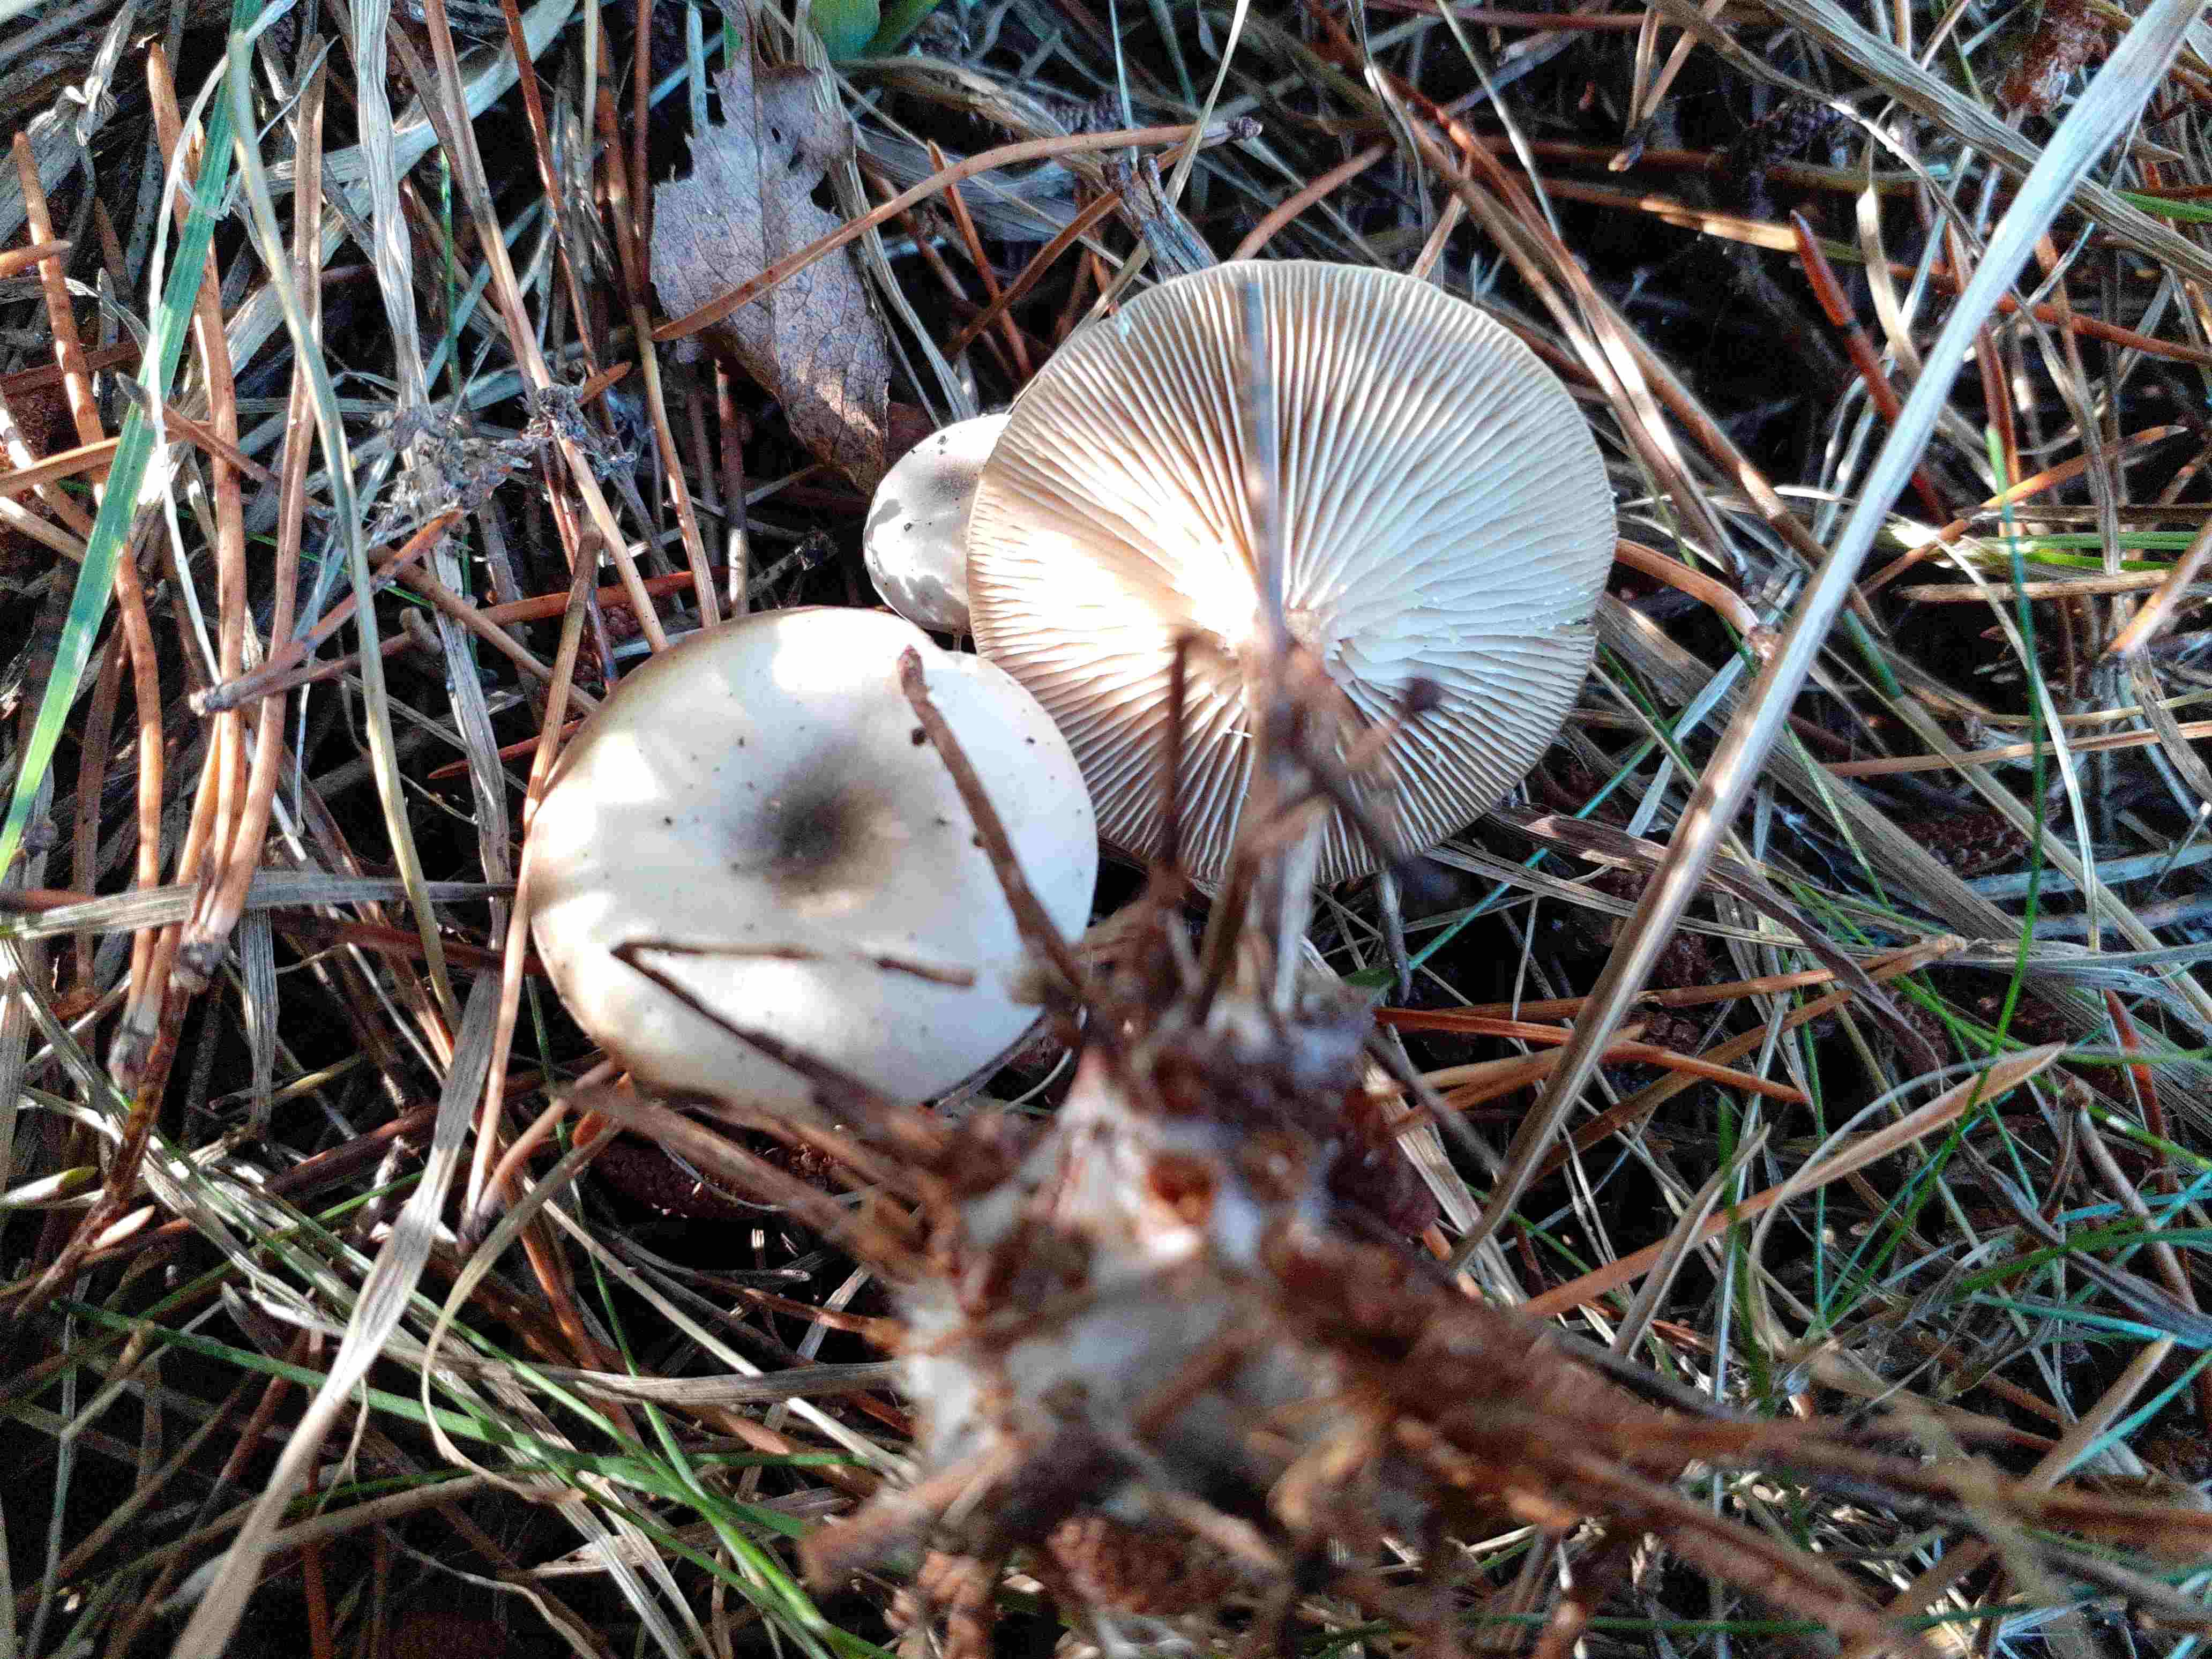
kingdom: Fungi
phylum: Basidiomycota
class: Agaricomycetes
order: Agaricales
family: Tricholomataceae
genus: Clitocybe
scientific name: Clitocybe
